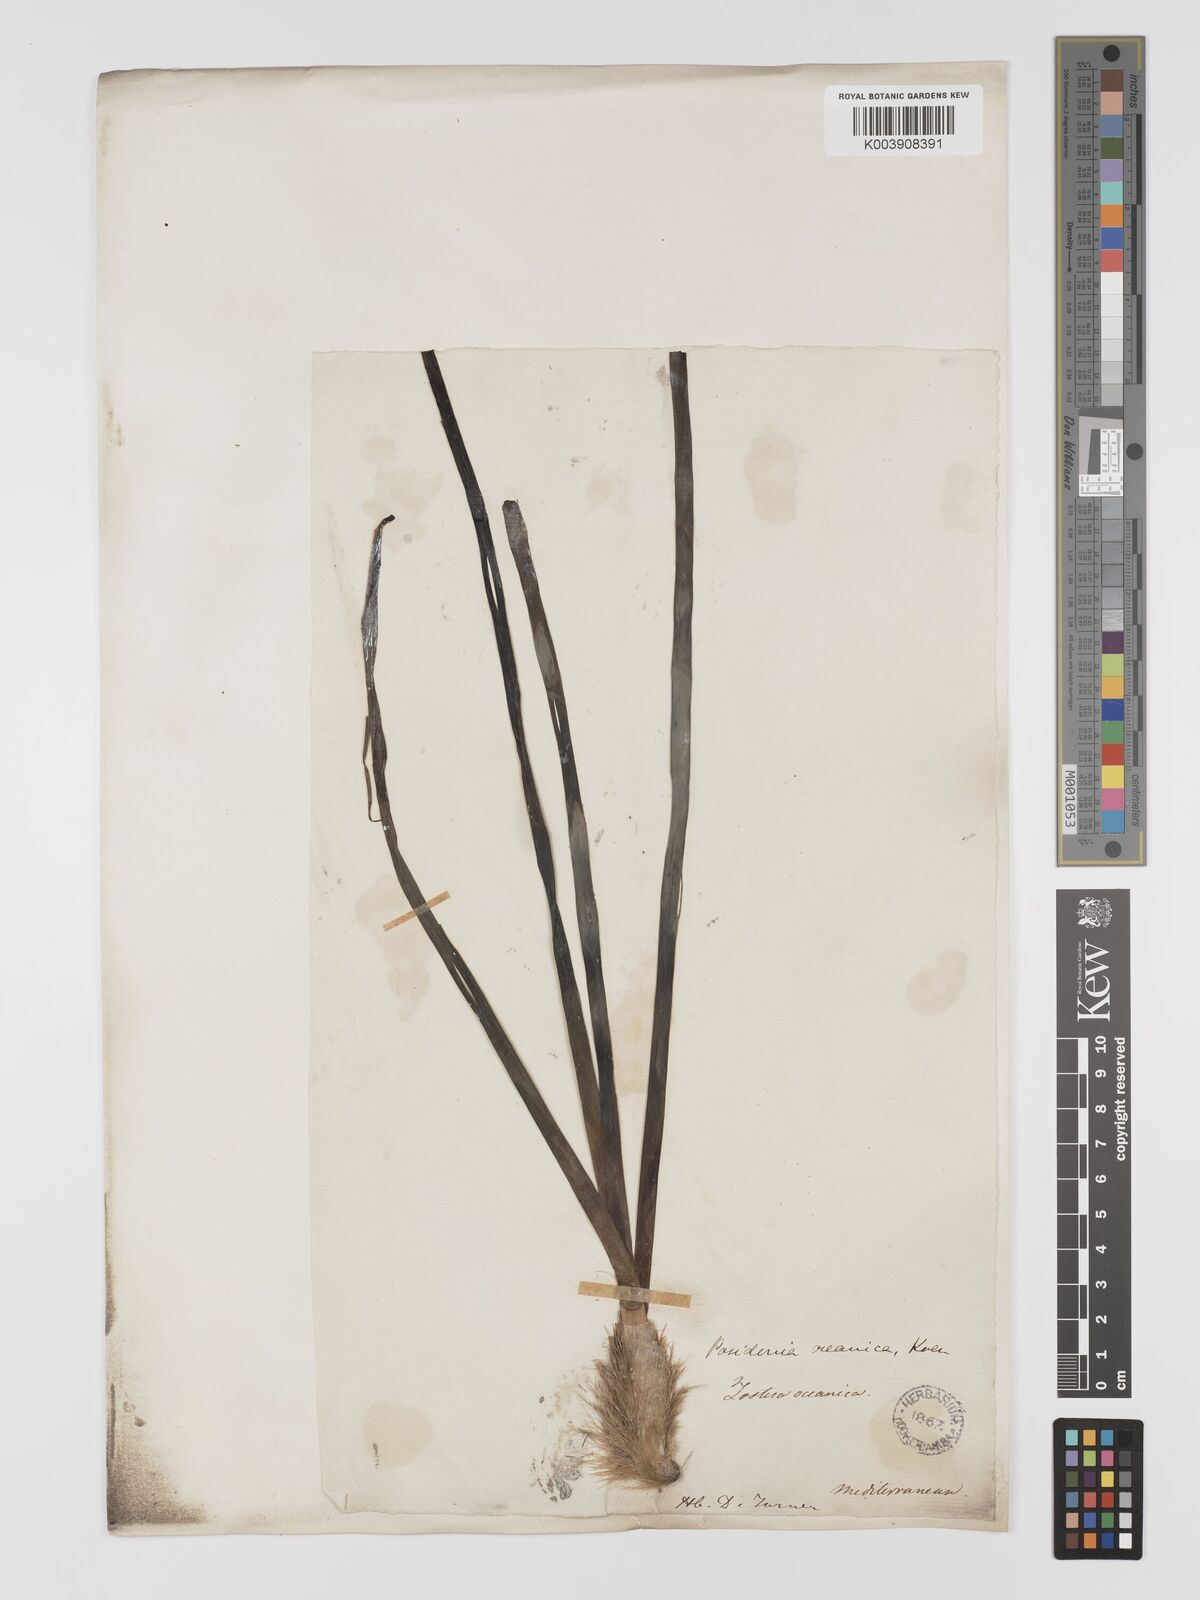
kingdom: Plantae
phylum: Tracheophyta
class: Liliopsida
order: Alismatales
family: Posidoniaceae
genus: Posidonia
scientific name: Posidonia oceanica
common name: Mediterranean tapeweed
